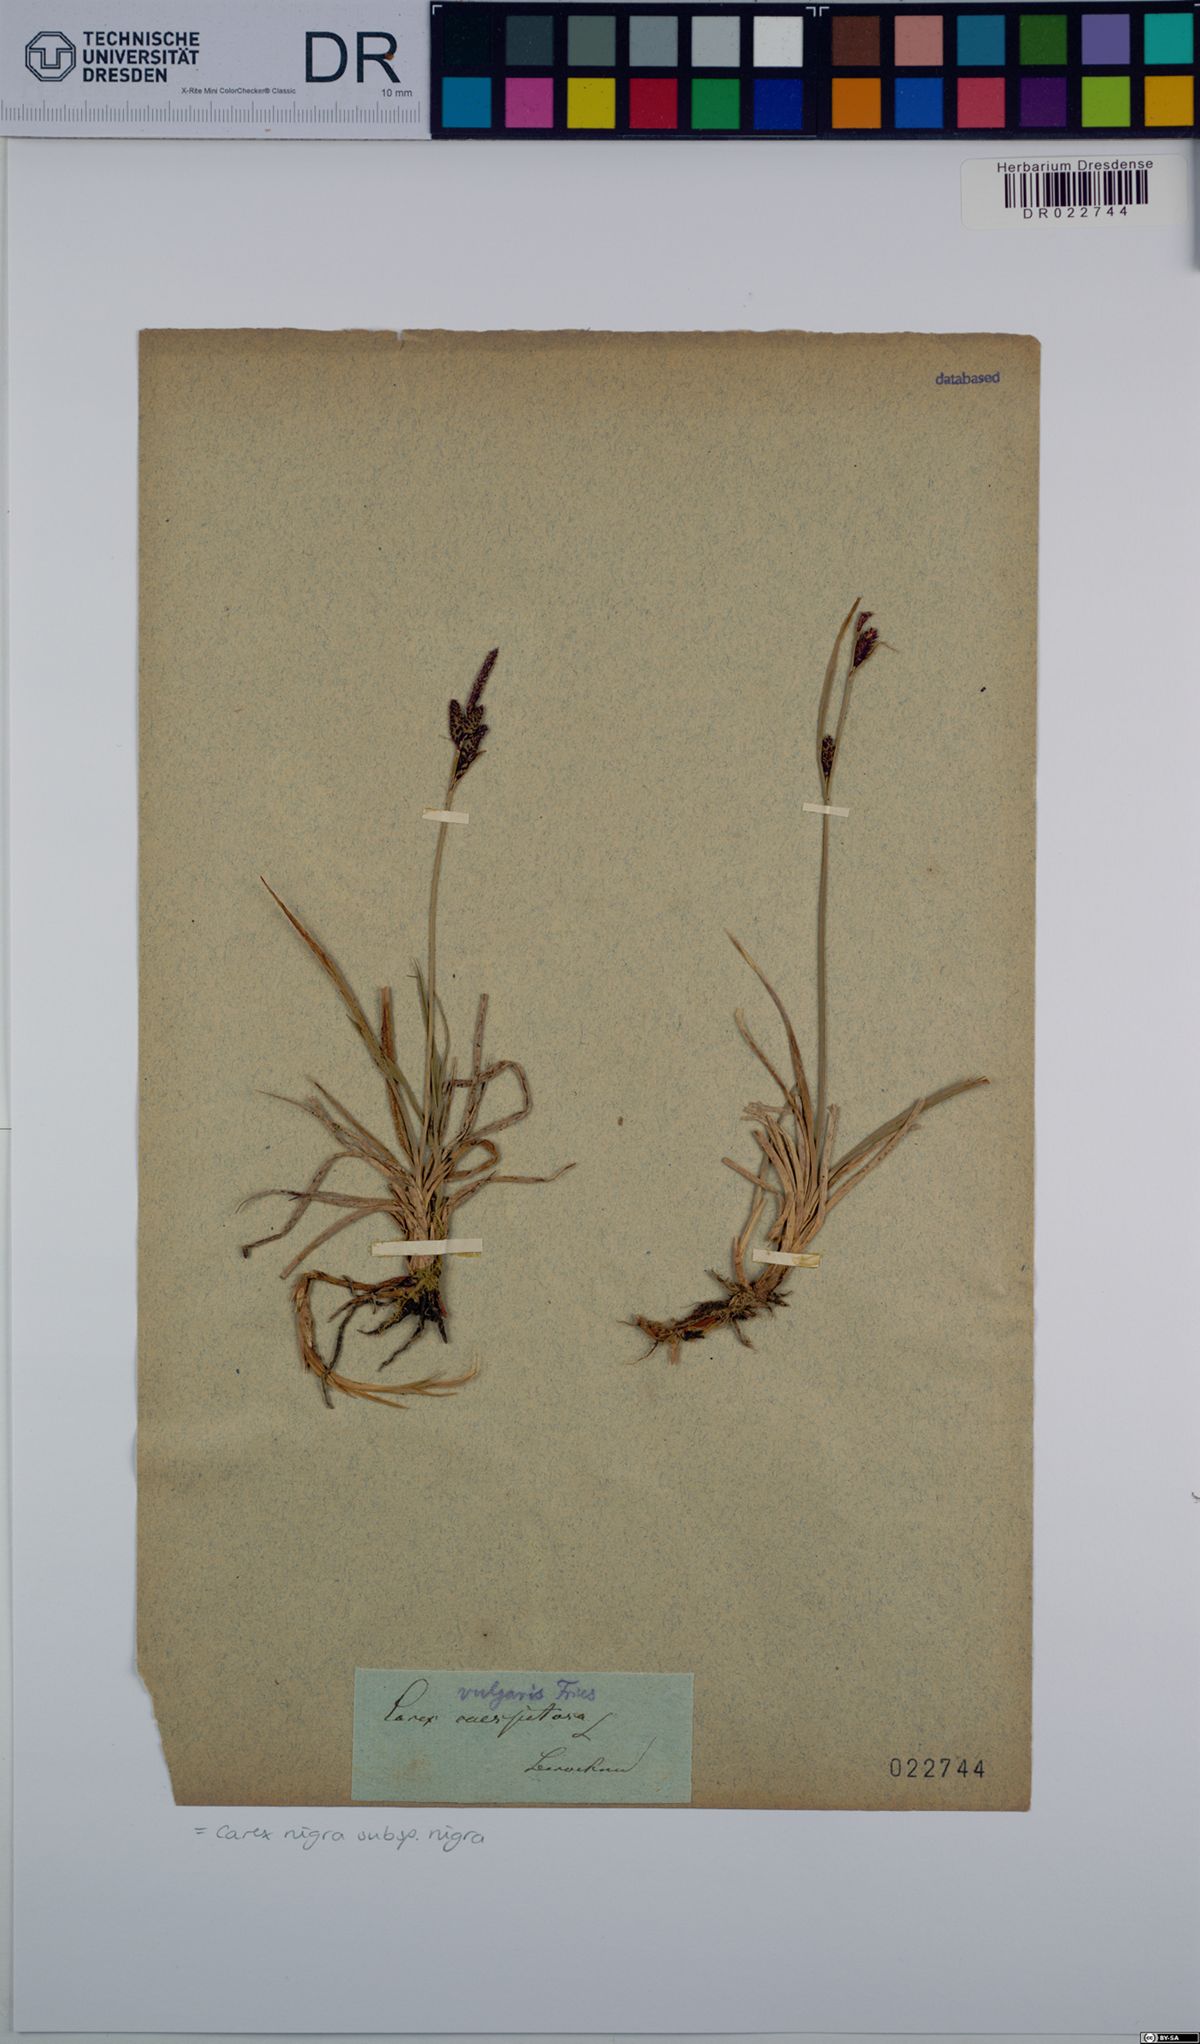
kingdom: Plantae
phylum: Tracheophyta
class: Liliopsida
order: Poales
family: Cyperaceae
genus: Carex
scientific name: Carex nigra
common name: Common sedge
